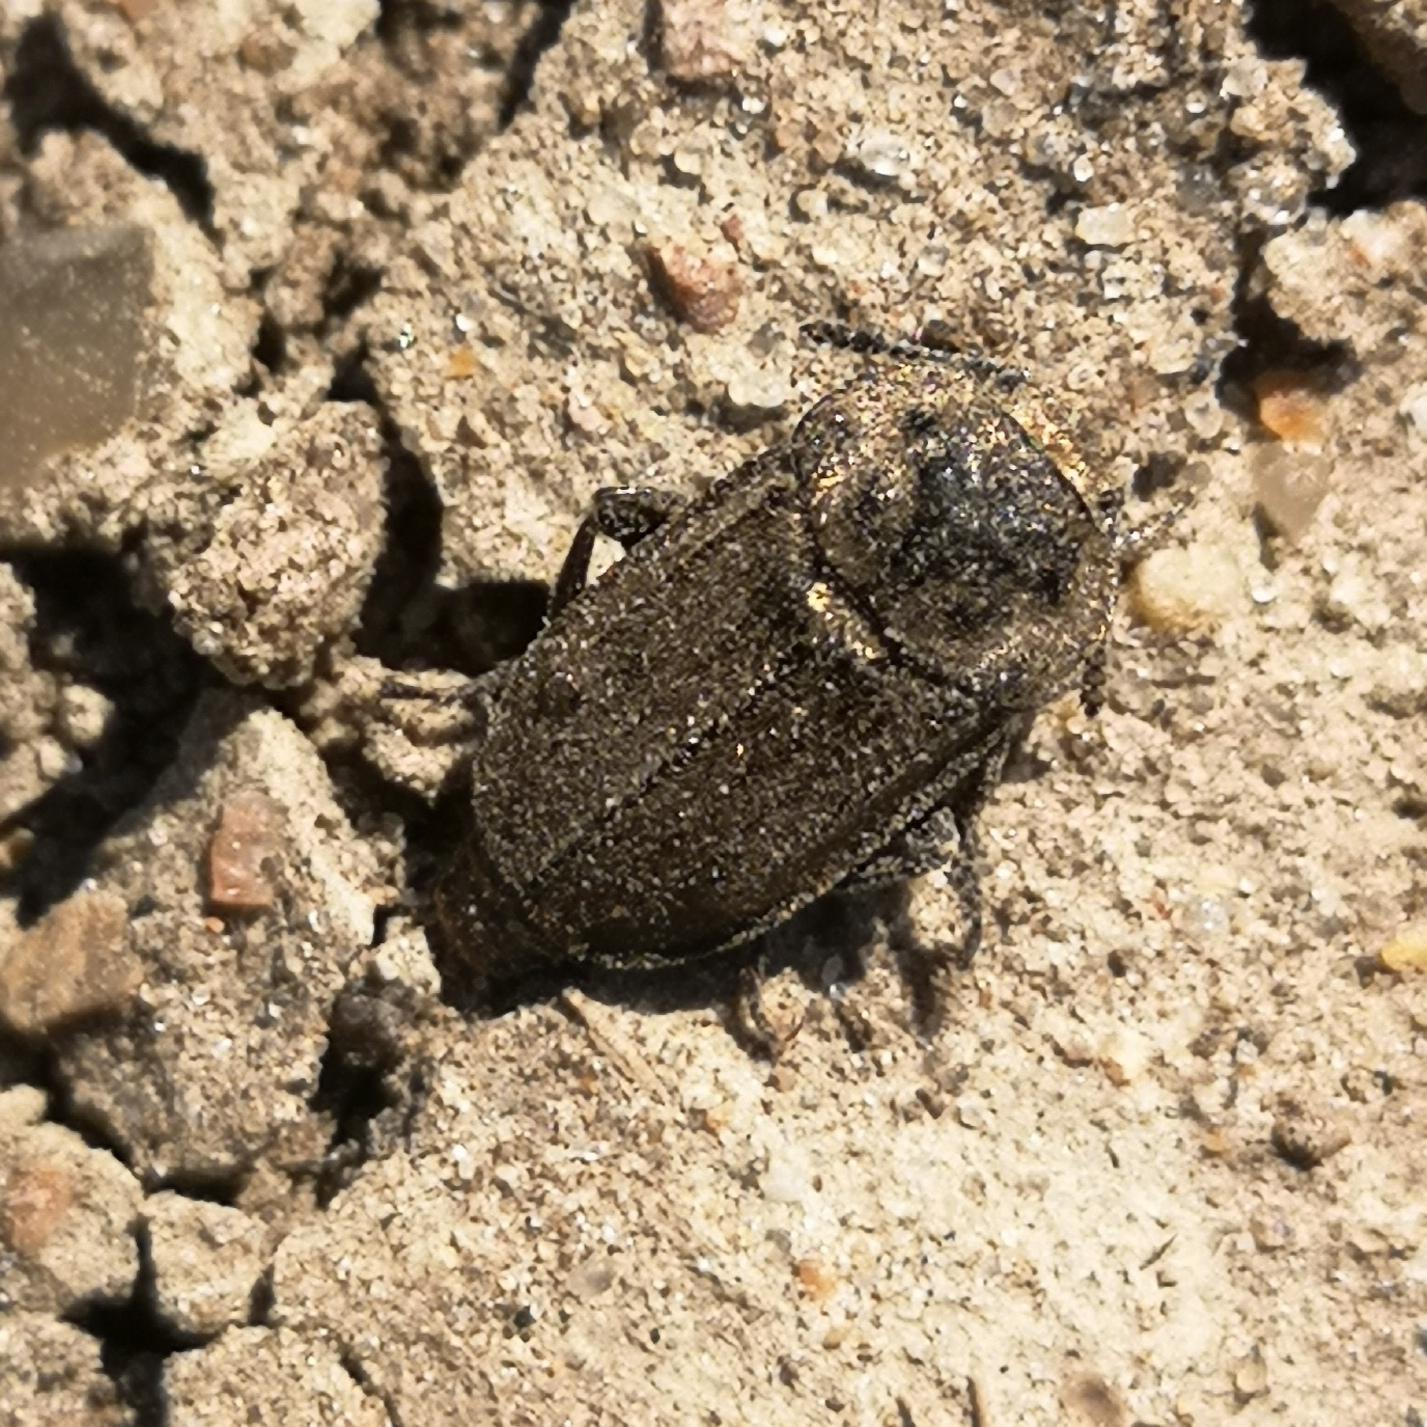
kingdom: Animalia
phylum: Arthropoda
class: Insecta
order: Coleoptera
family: Staphylinidae
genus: Aclypea
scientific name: Aclypea opaca
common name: Matsort ådselbille
